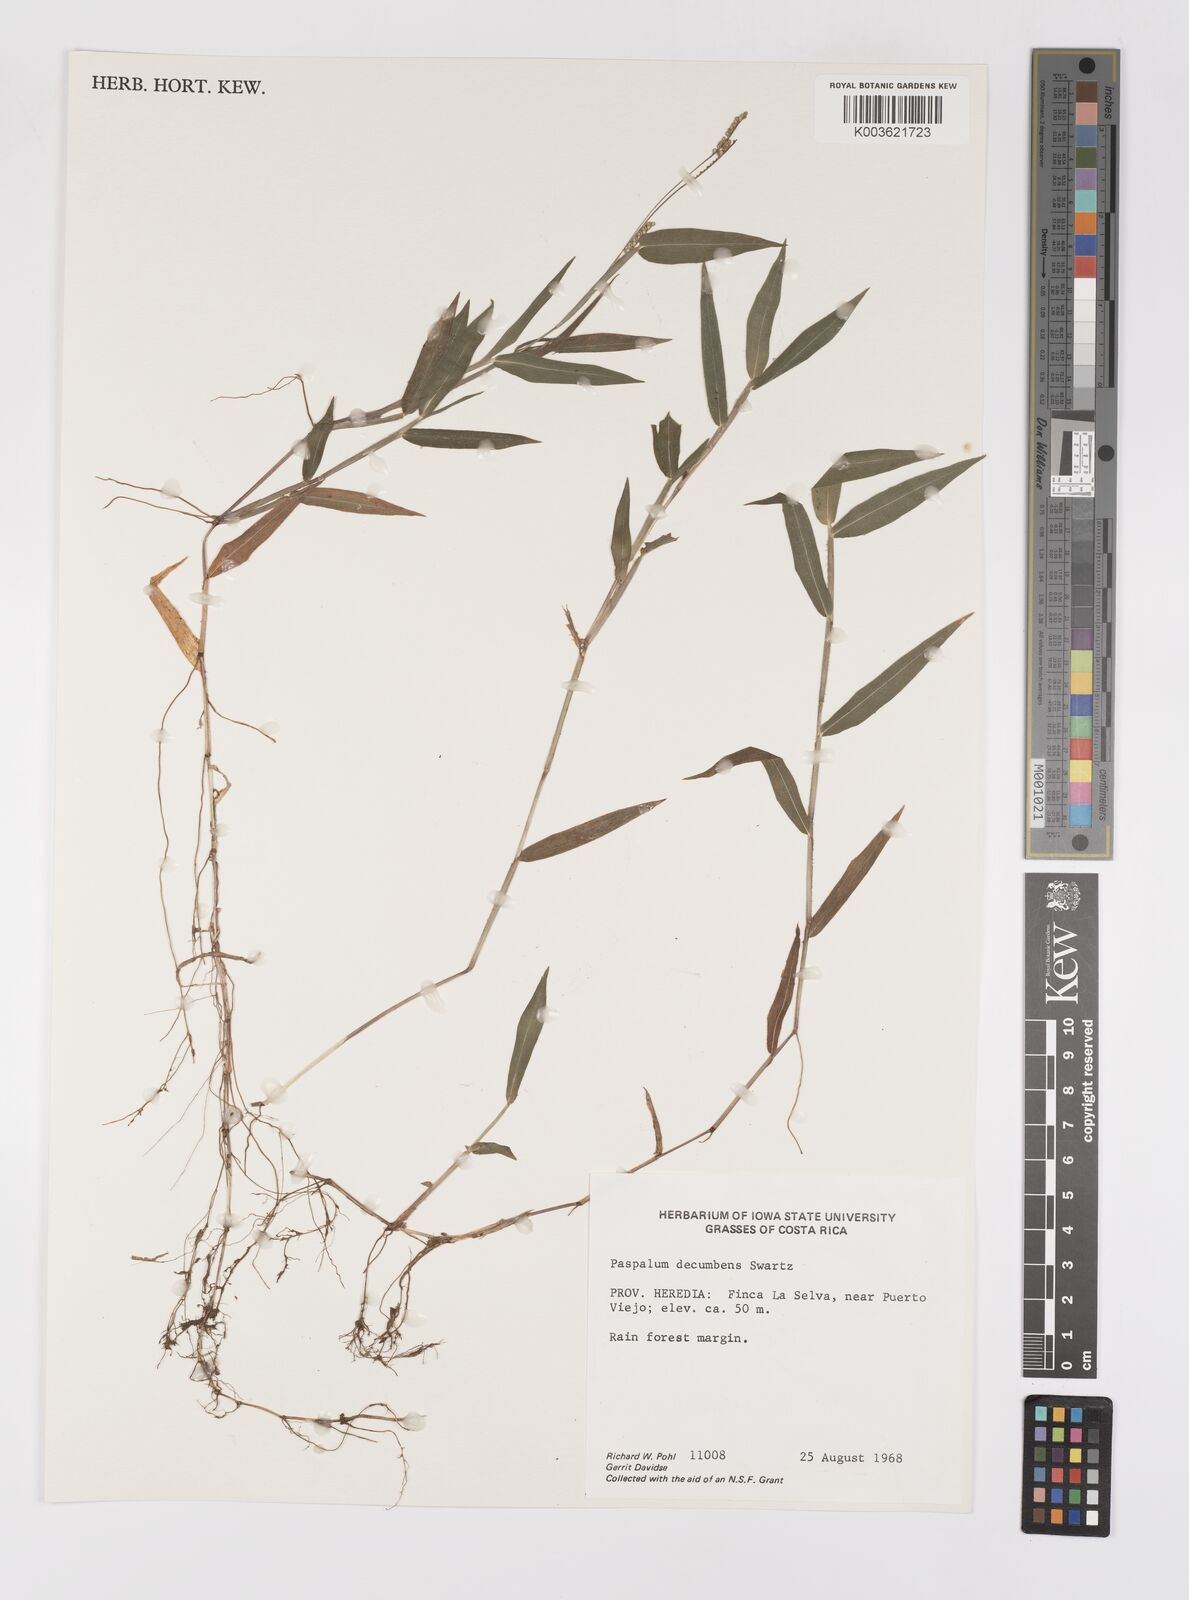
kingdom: Plantae
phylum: Tracheophyta
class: Liliopsida
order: Poales
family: Poaceae
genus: Paspalum
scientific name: Paspalum
